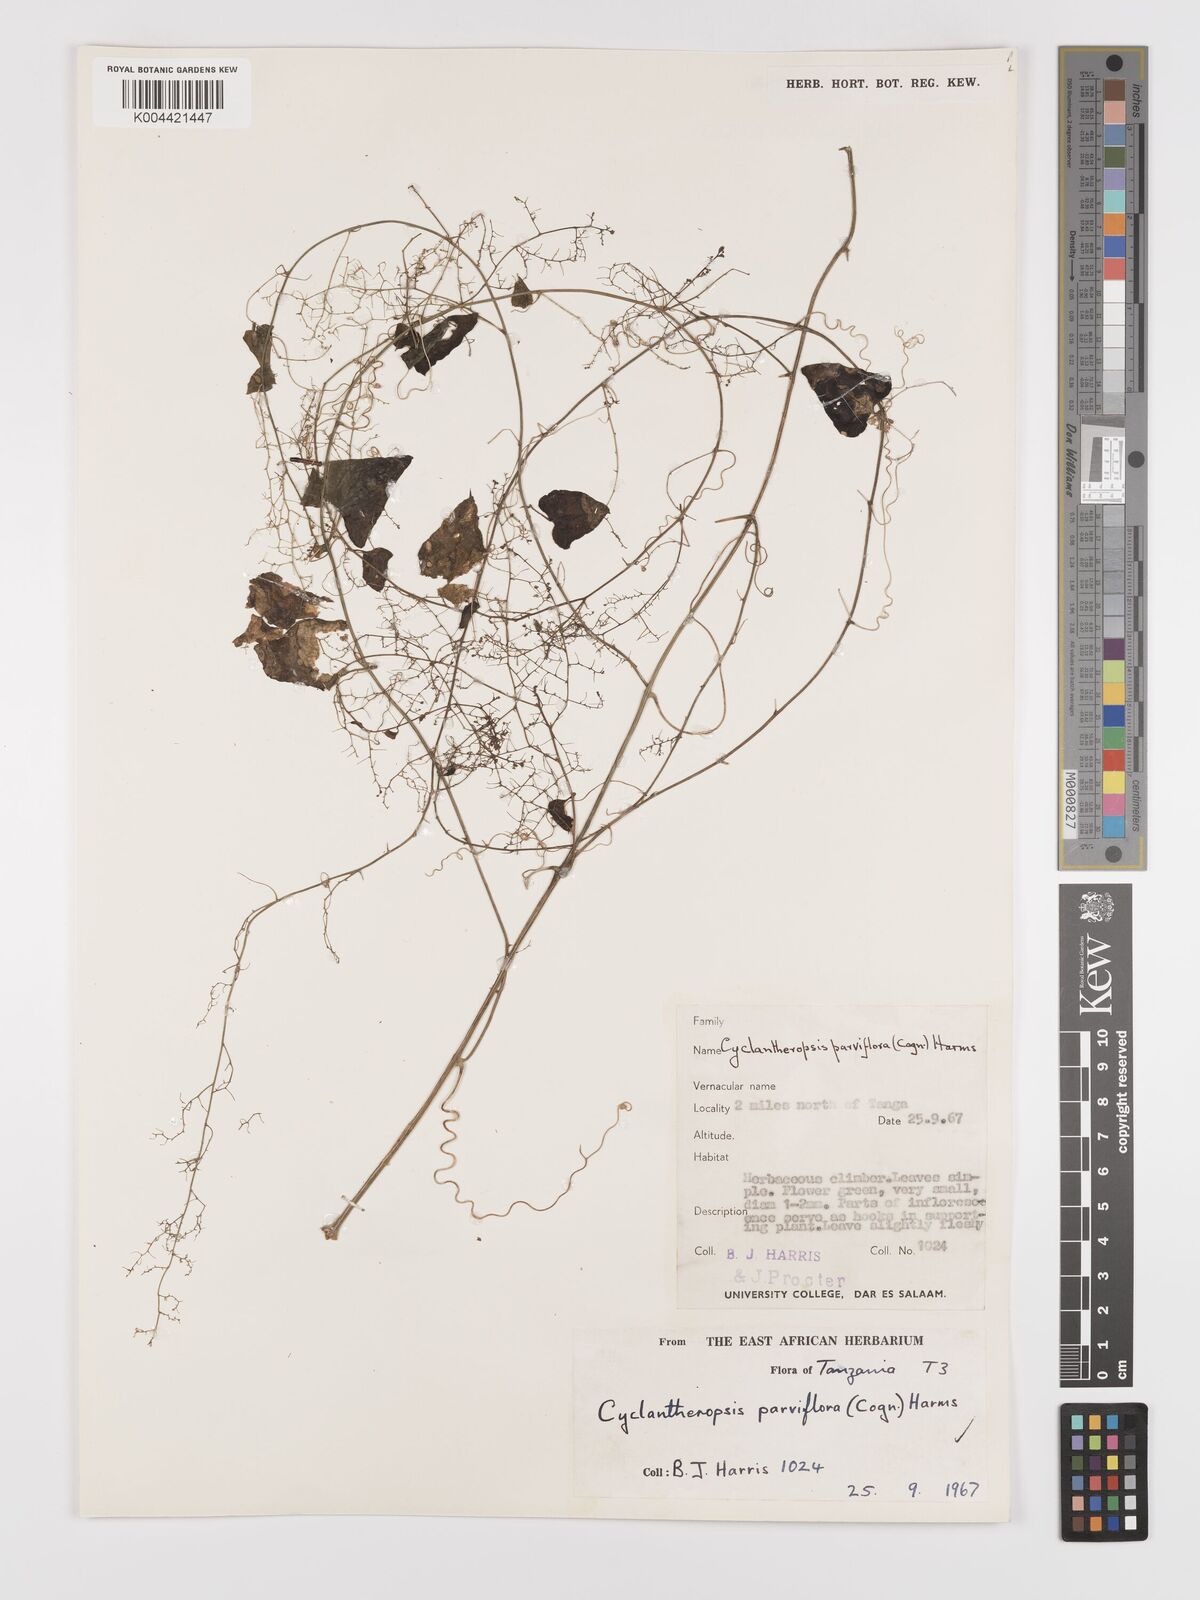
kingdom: Plantae
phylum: Tracheophyta
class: Magnoliopsida
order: Cucurbitales
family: Cucurbitaceae
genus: Cyclantheropsis
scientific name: Cyclantheropsis parviflora
